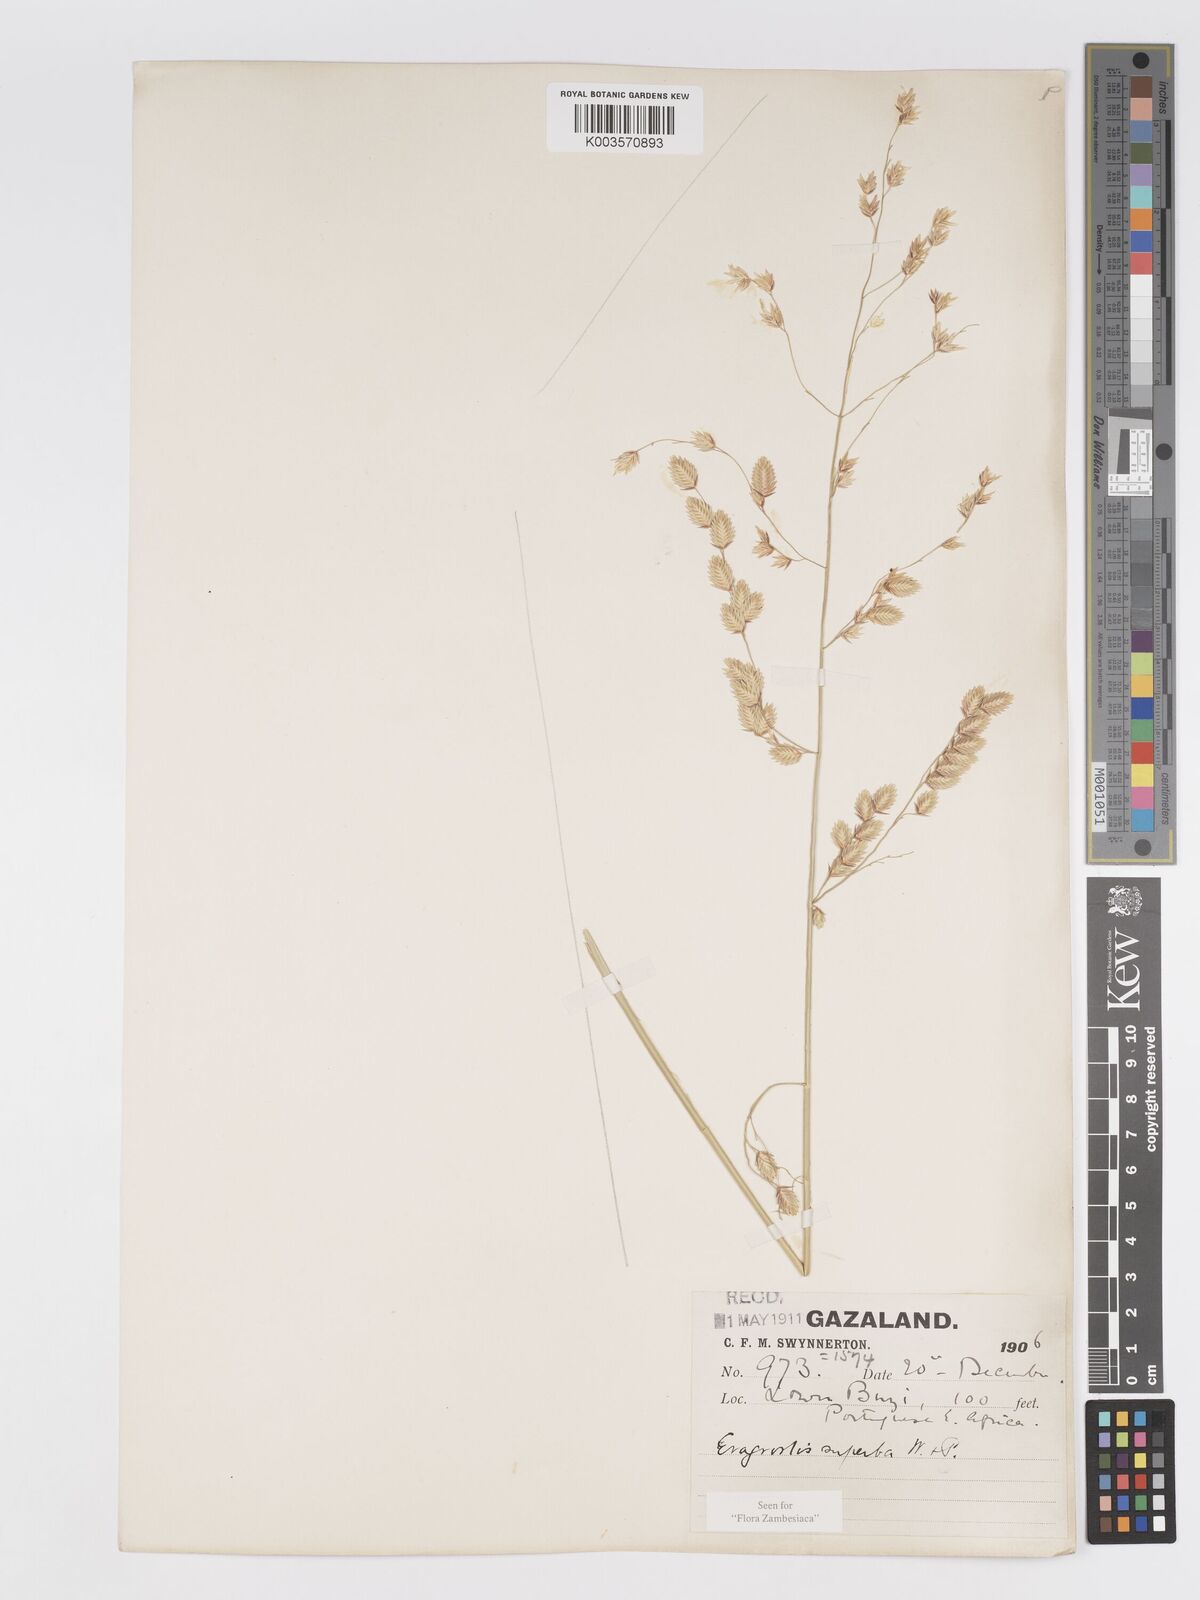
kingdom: Plantae
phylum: Tracheophyta
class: Liliopsida
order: Poales
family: Poaceae
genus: Eragrostis
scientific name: Eragrostis superba
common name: Wilman lovegrass
